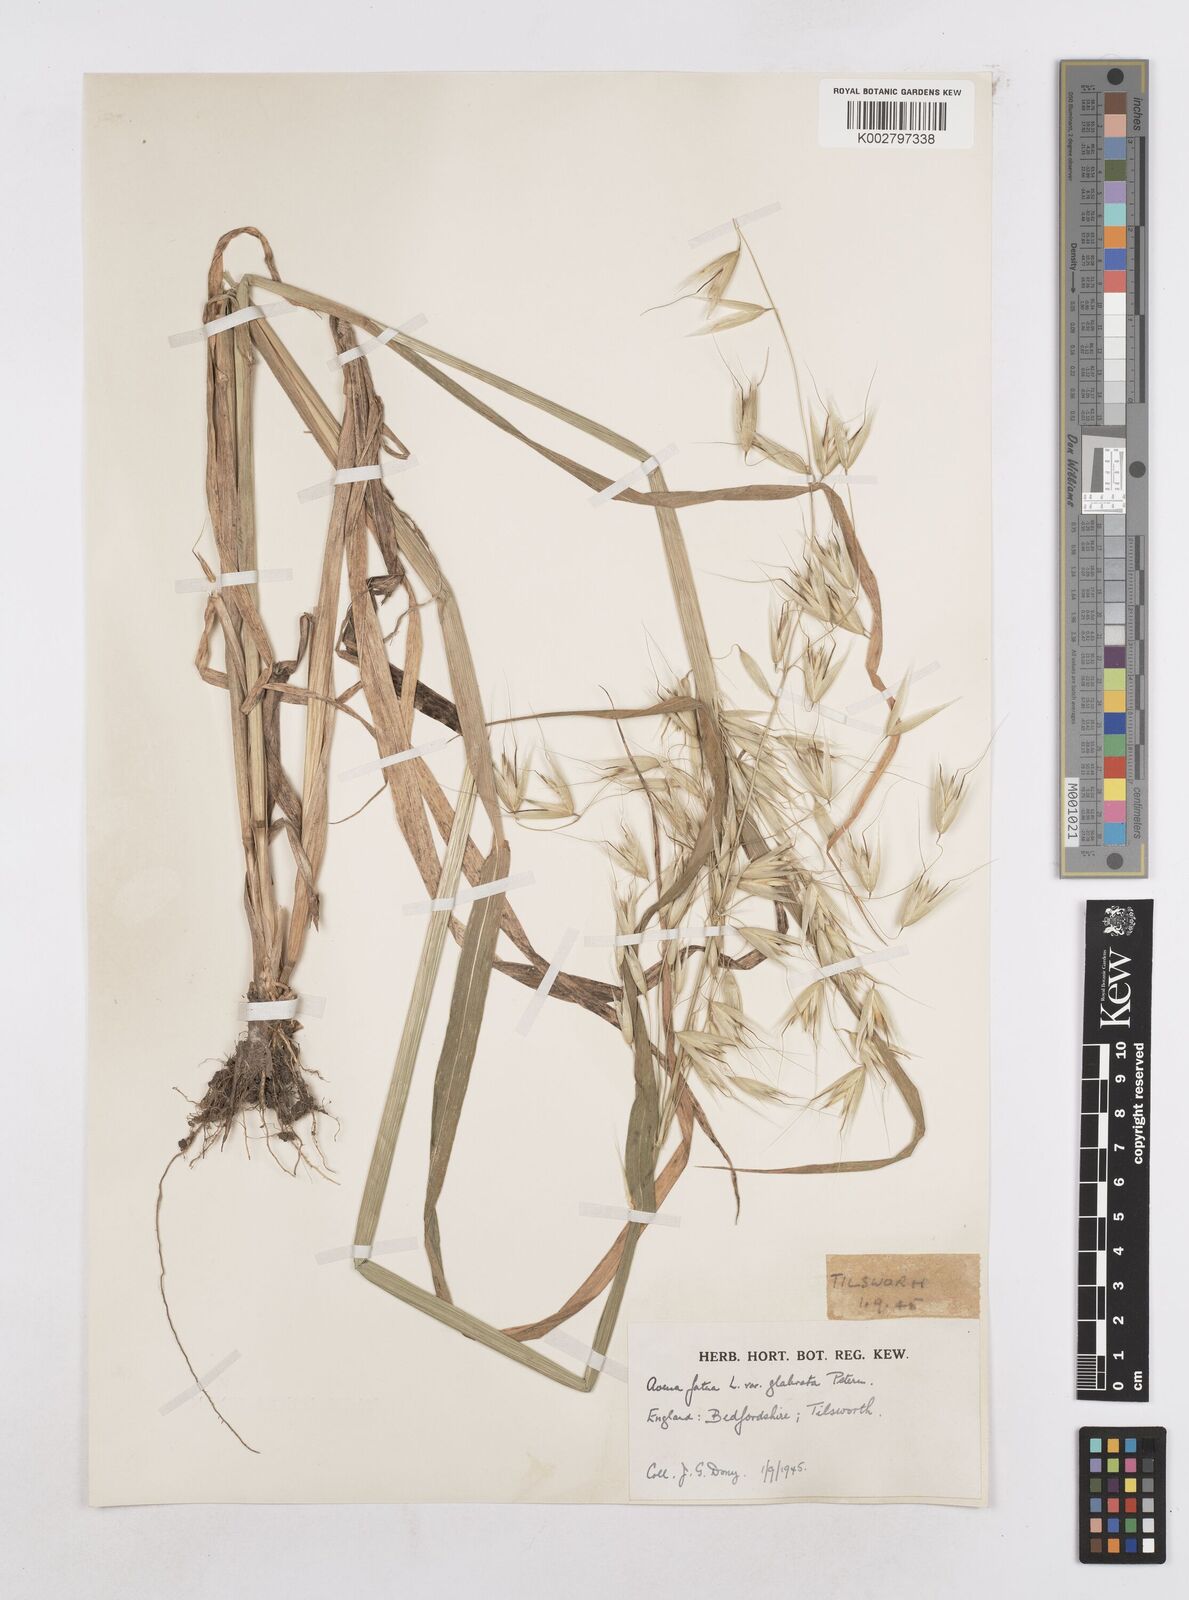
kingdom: Plantae
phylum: Tracheophyta
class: Liliopsida
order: Poales
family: Poaceae
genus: Avena
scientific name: Avena fatua
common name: Wild oat
